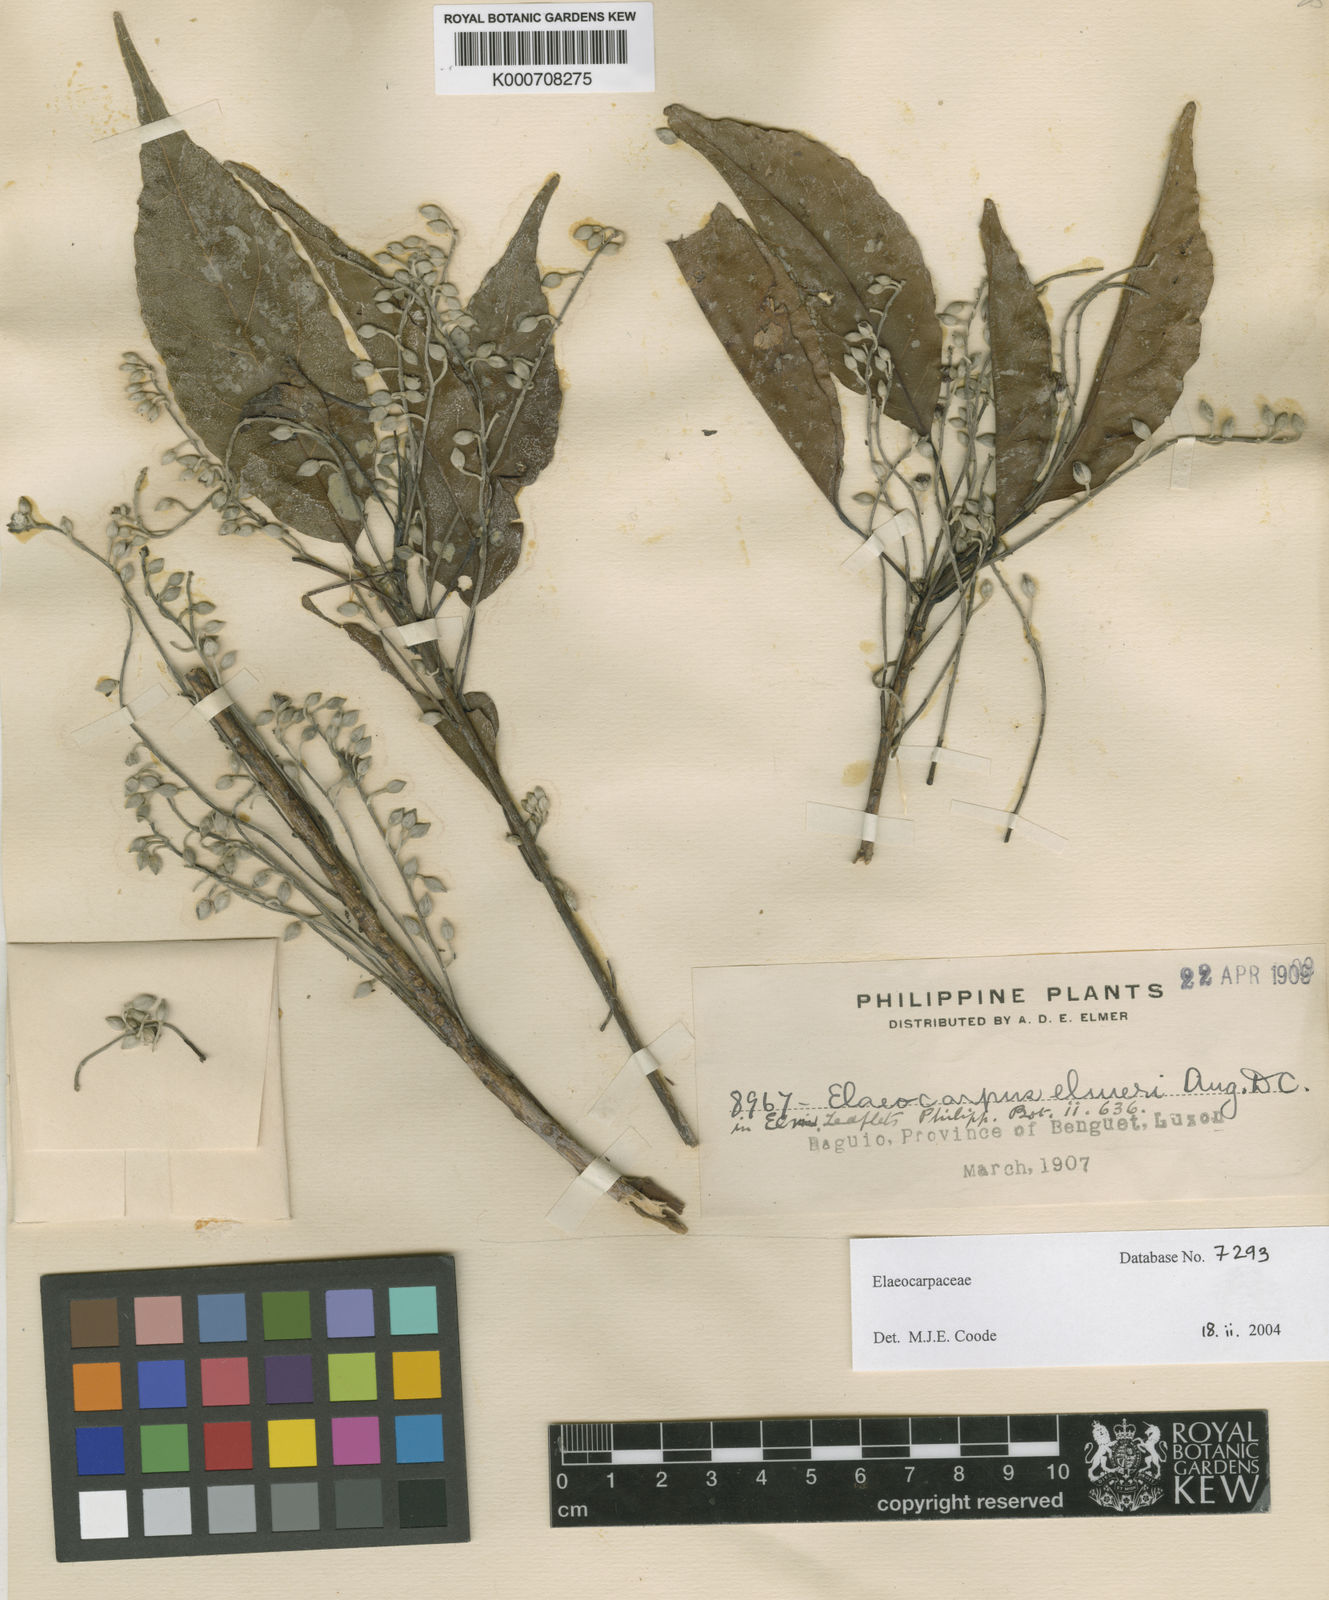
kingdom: Plantae
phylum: Tracheophyta
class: Magnoliopsida
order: Oxalidales
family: Elaeocarpaceae
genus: Elaeocarpus
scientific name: Elaeocarpus elmeri
